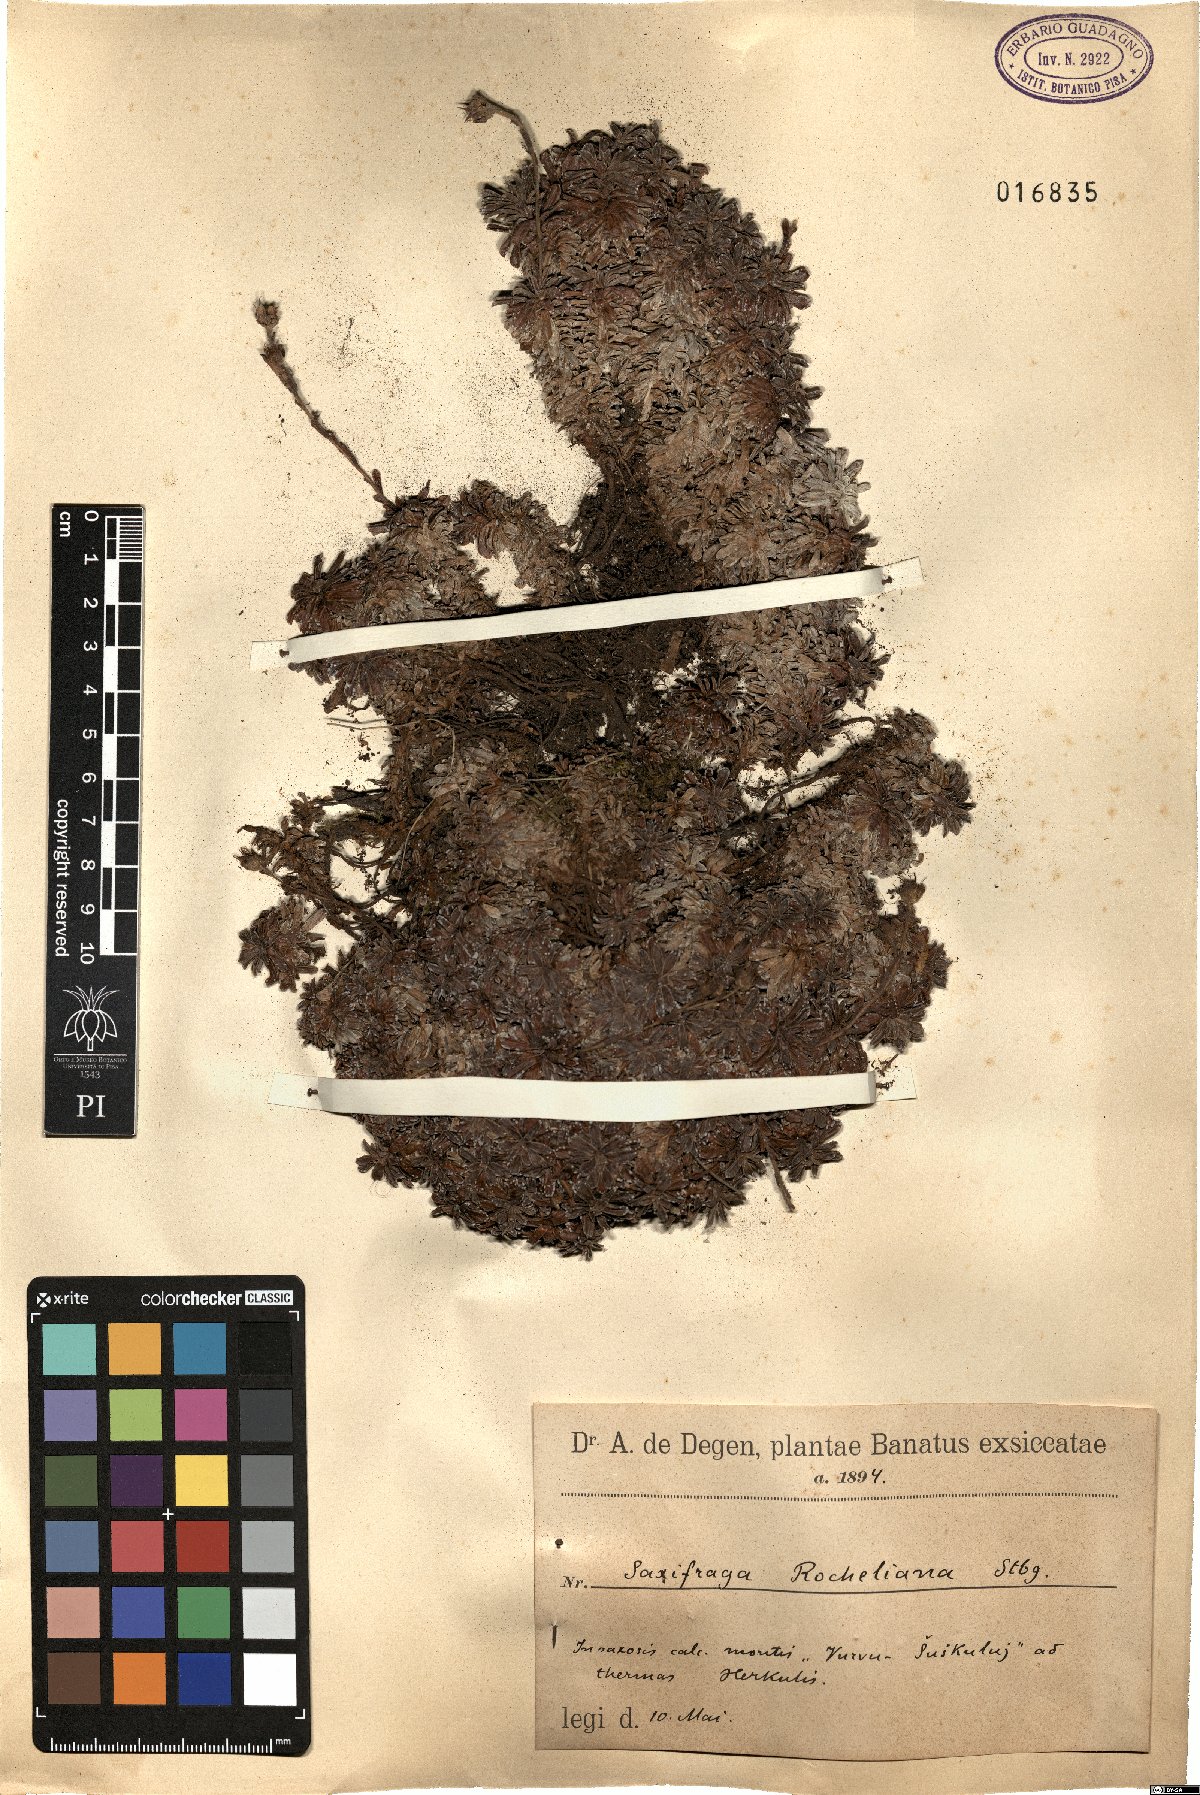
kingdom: Plantae
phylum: Tracheophyta
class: Magnoliopsida
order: Saxifragales
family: Saxifragaceae
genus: Saxifraga
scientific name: Saxifraga marginata
